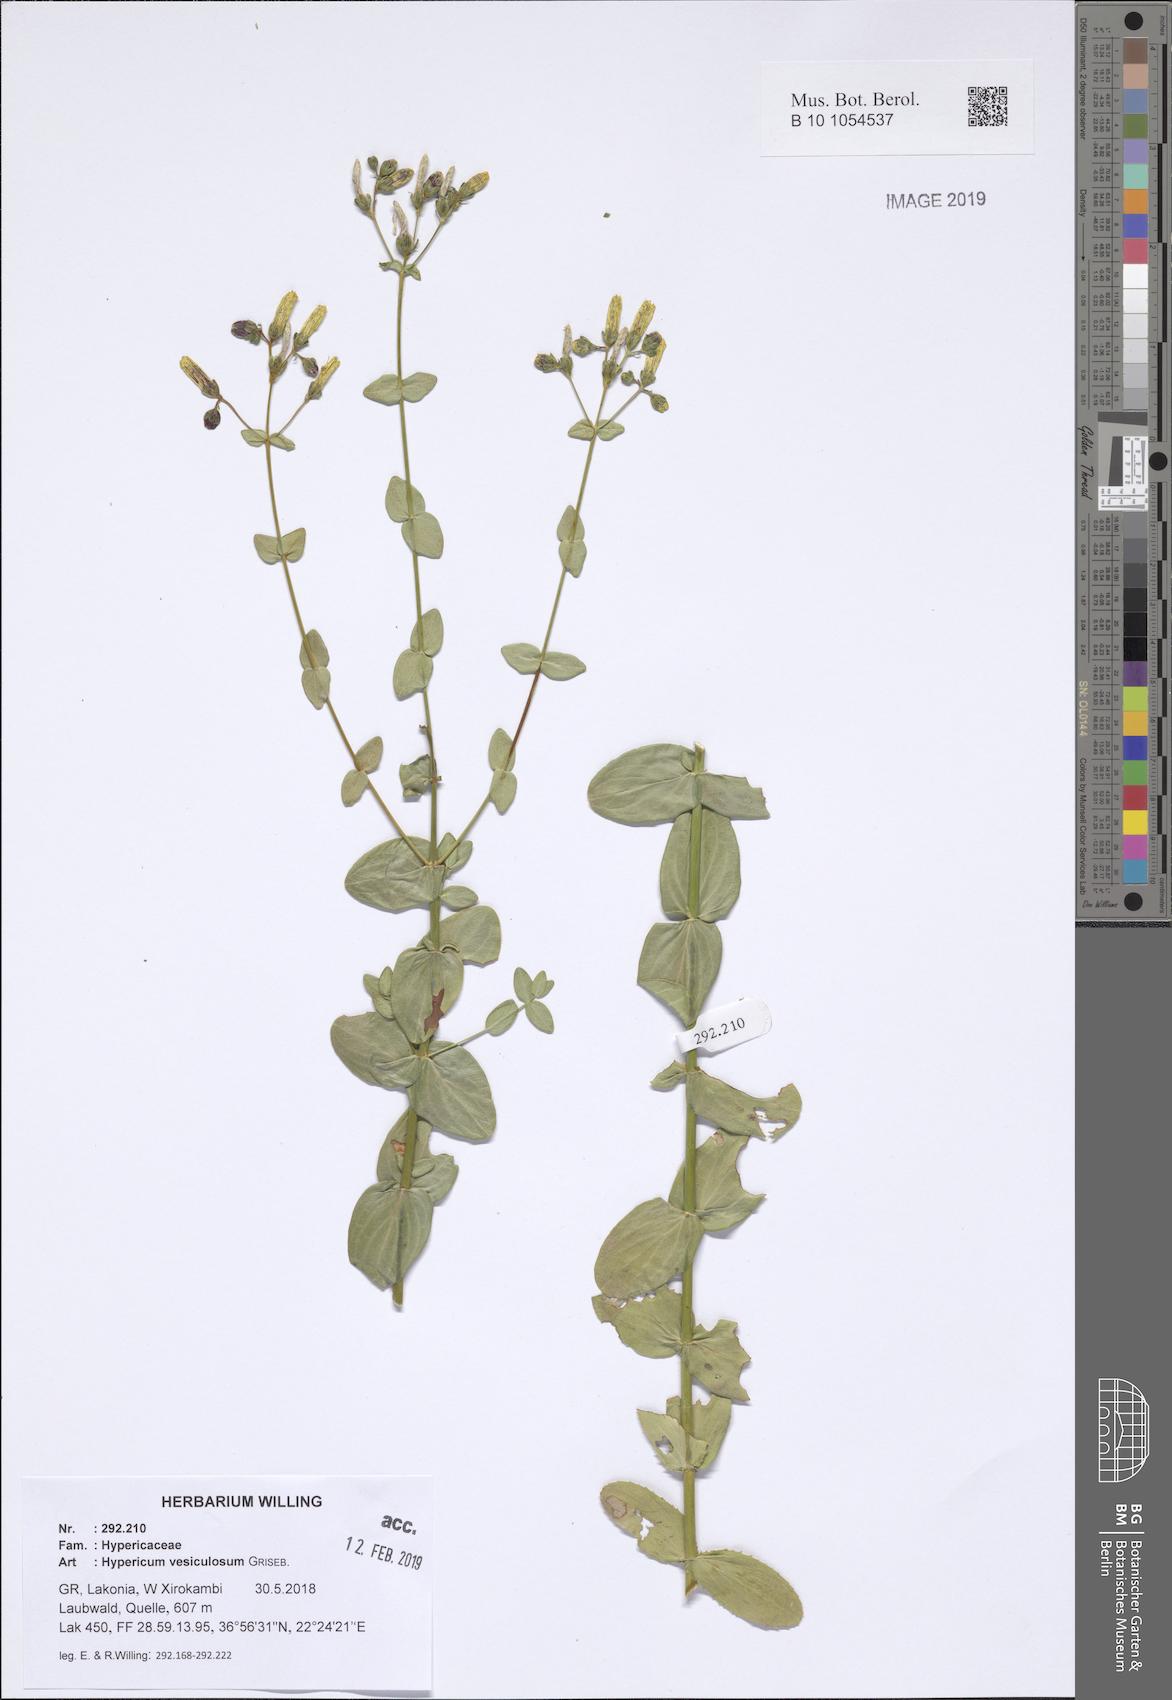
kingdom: Plantae
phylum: Tracheophyta
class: Magnoliopsida
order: Malpighiales
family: Hypericaceae
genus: Hypericum
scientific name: Hypericum vesiculosum
